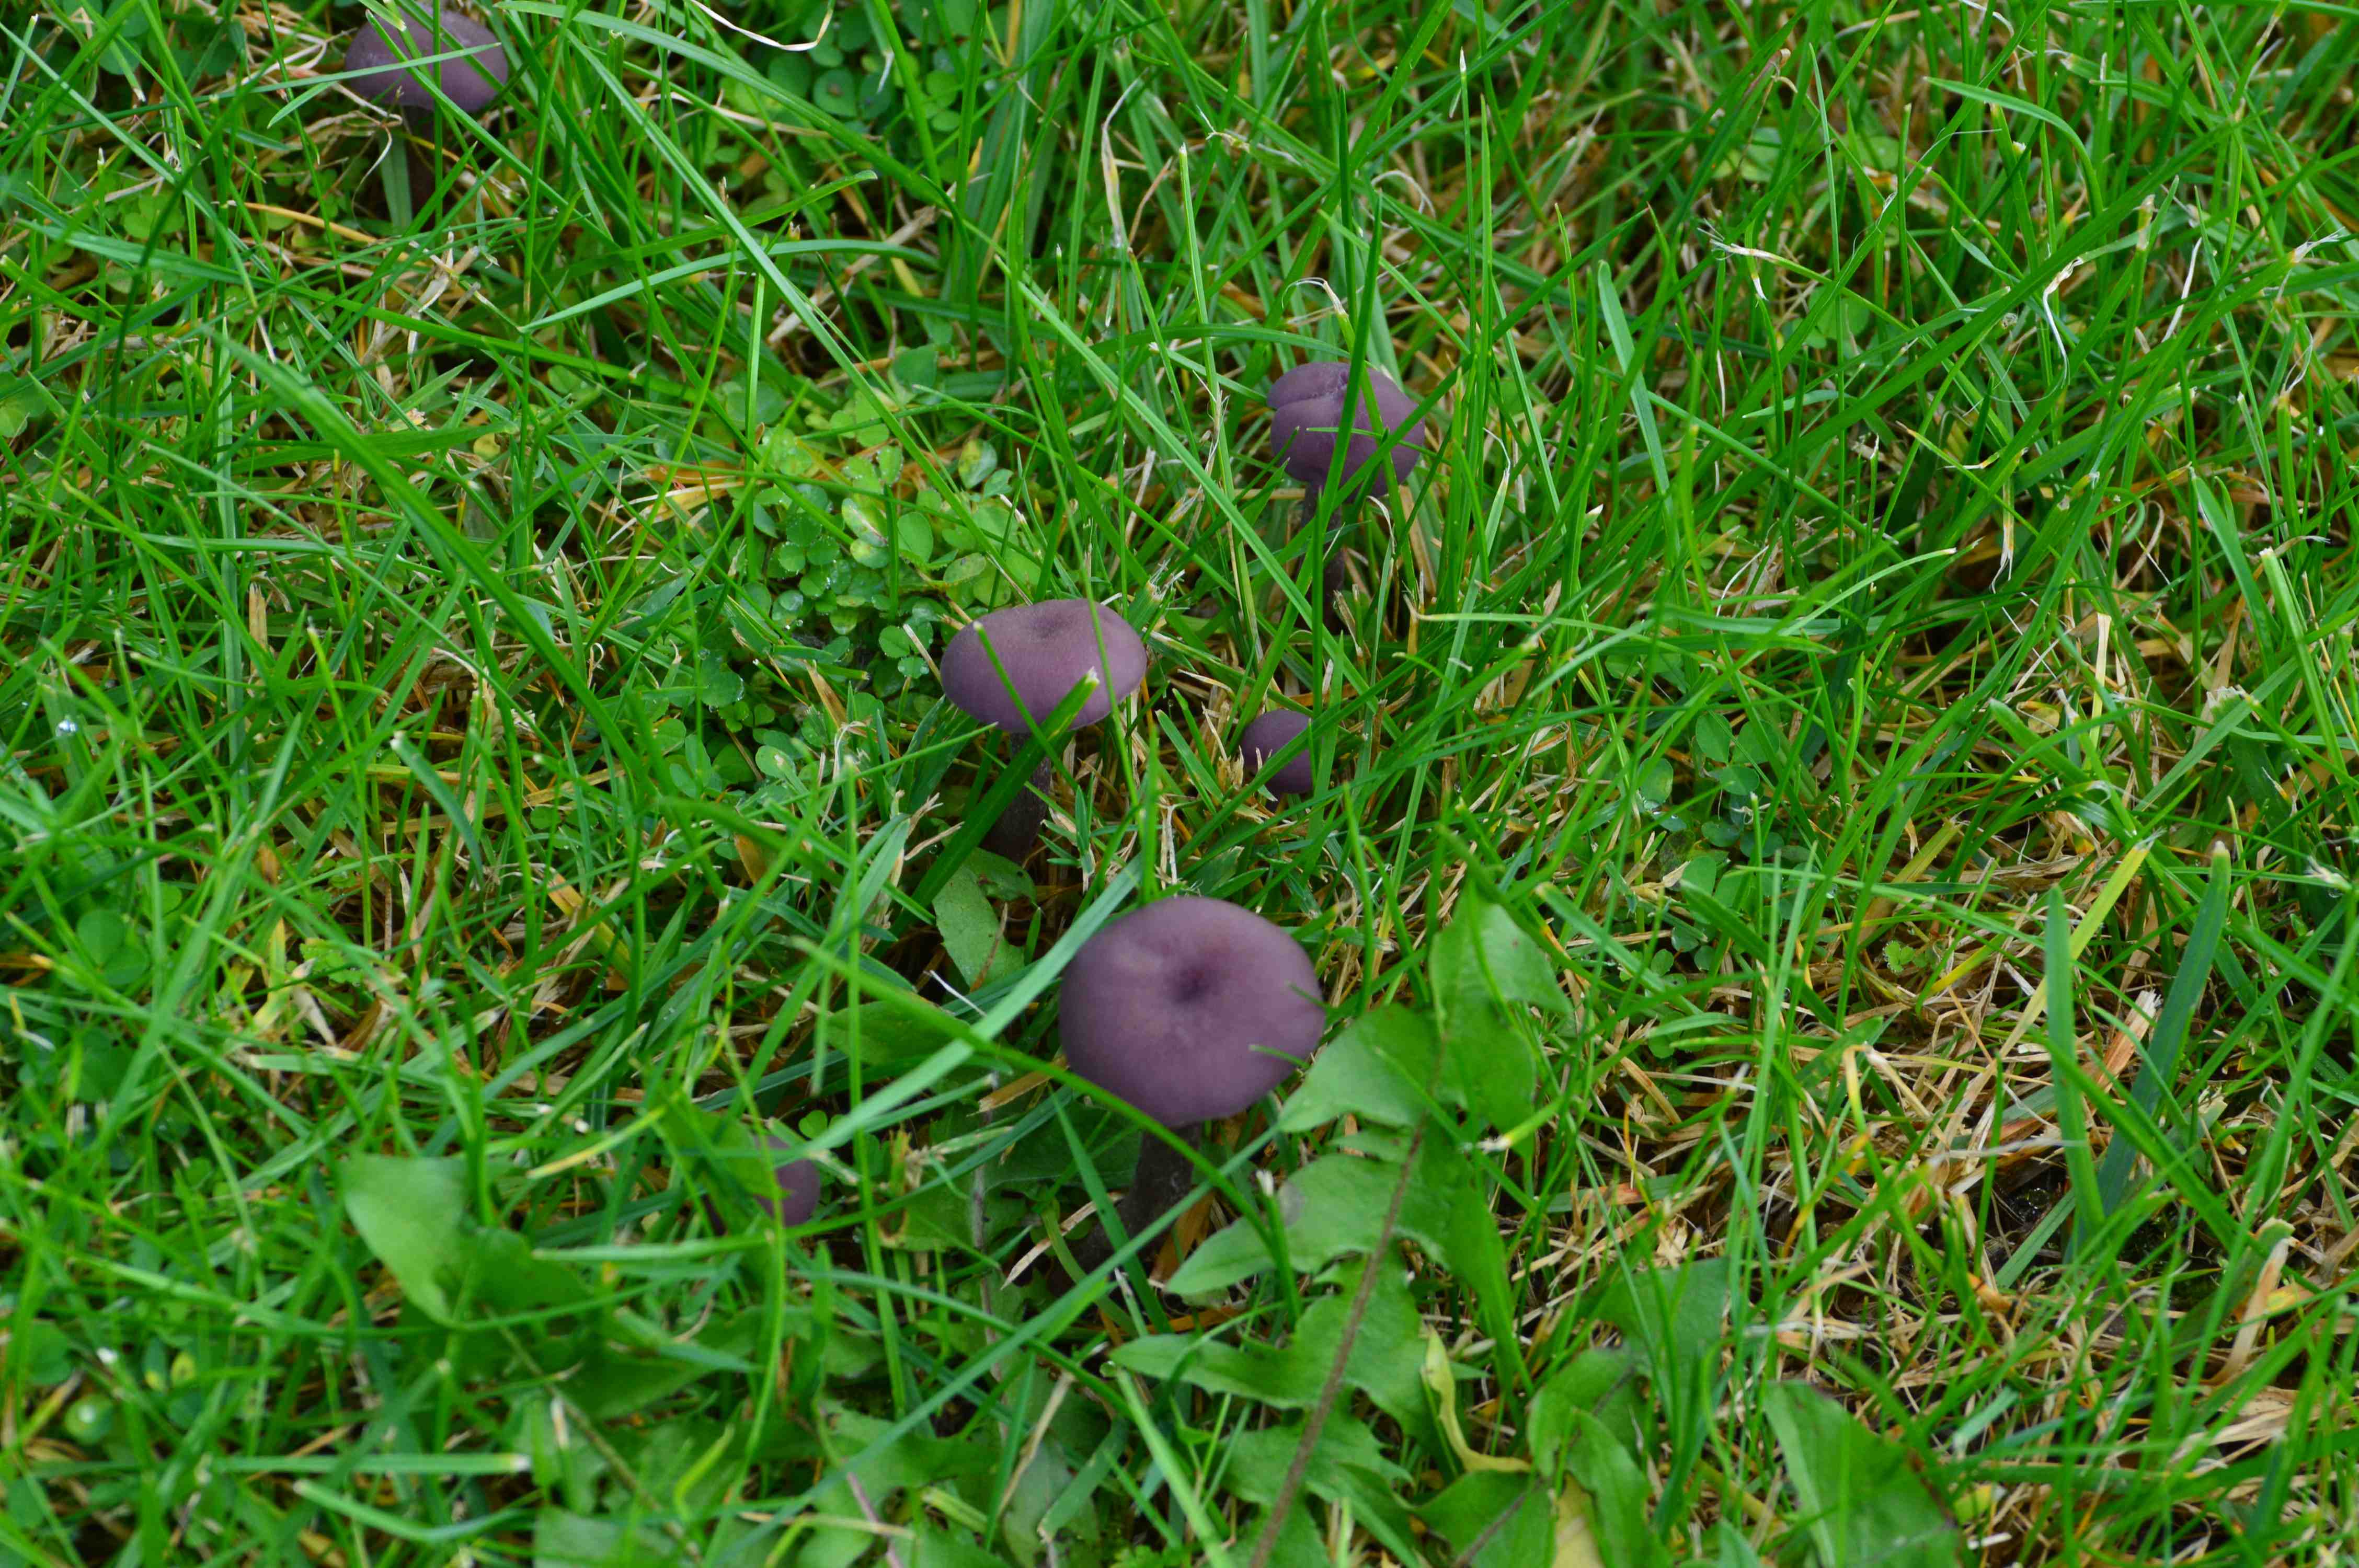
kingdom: Fungi
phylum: Basidiomycota
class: Agaricomycetes
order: Agaricales
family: Hydnangiaceae
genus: Laccaria
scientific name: Laccaria amethystina
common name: violet ametysthat
